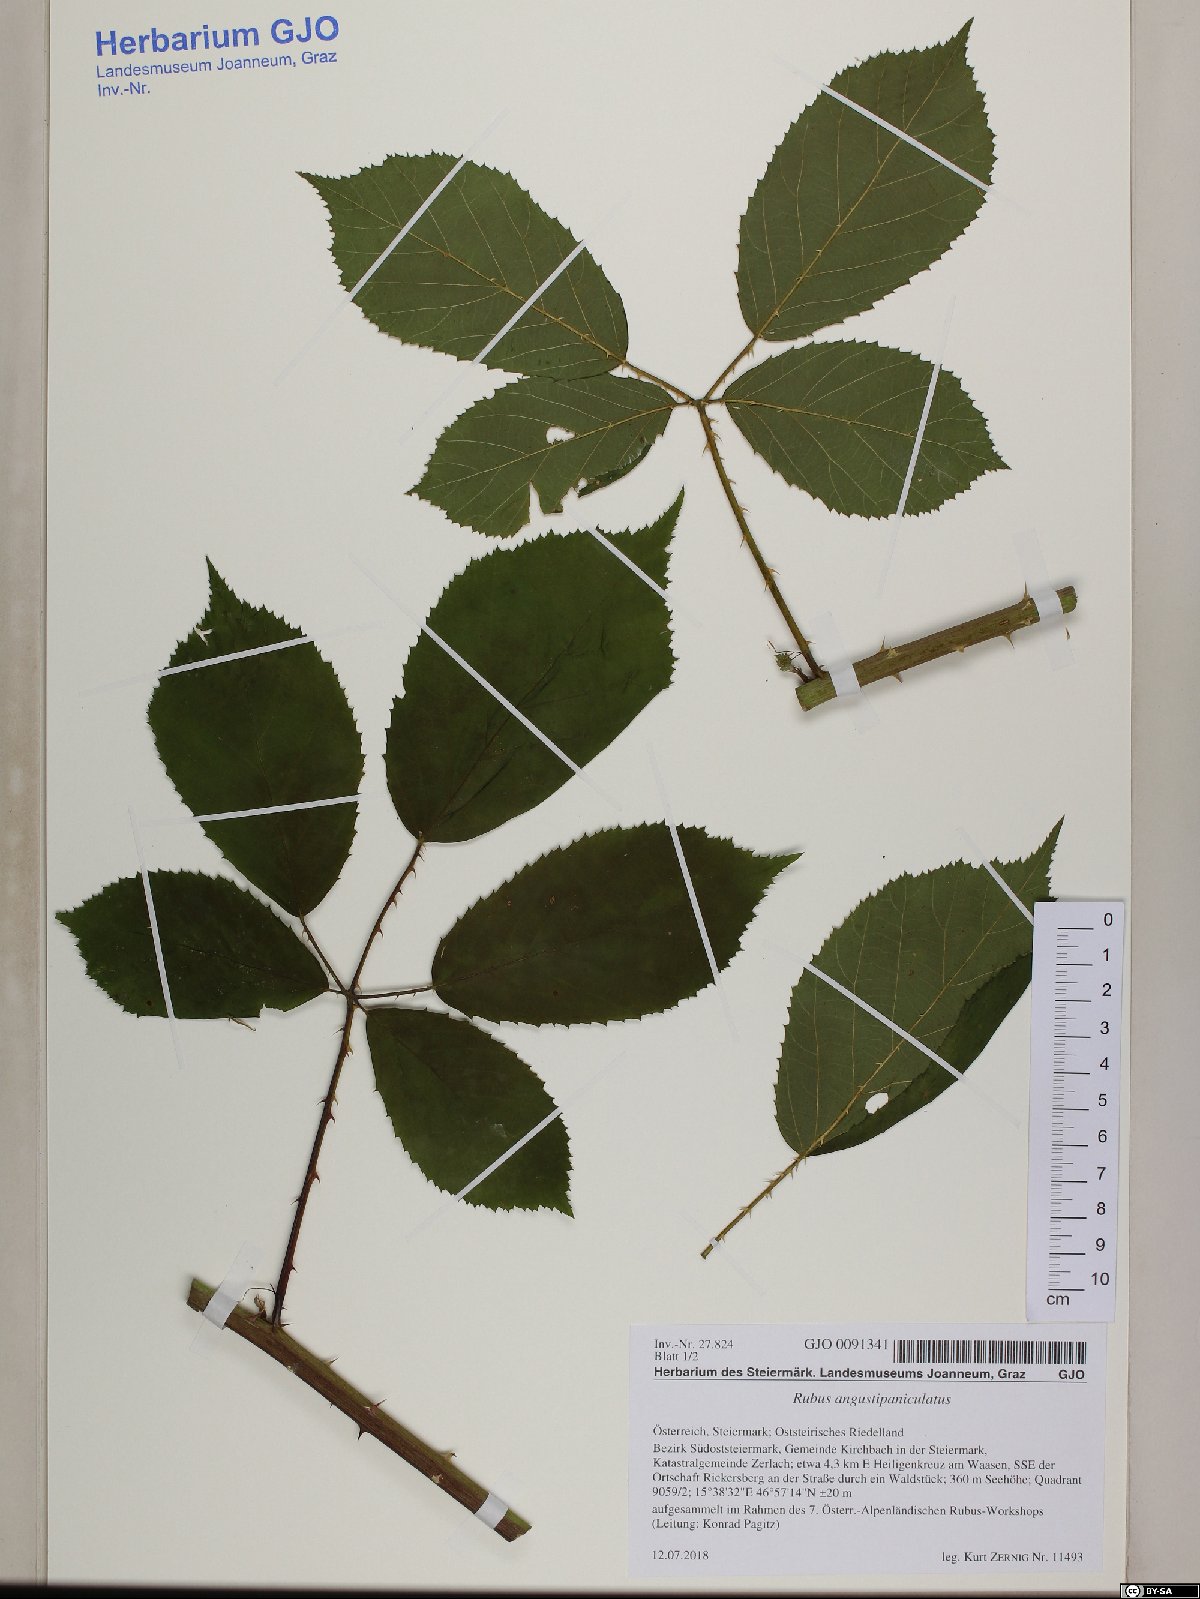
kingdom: Plantae
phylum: Tracheophyta
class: Magnoliopsida
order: Rosales
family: Rosaceae
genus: Rubus
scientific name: Rubus angustipaniculatus
